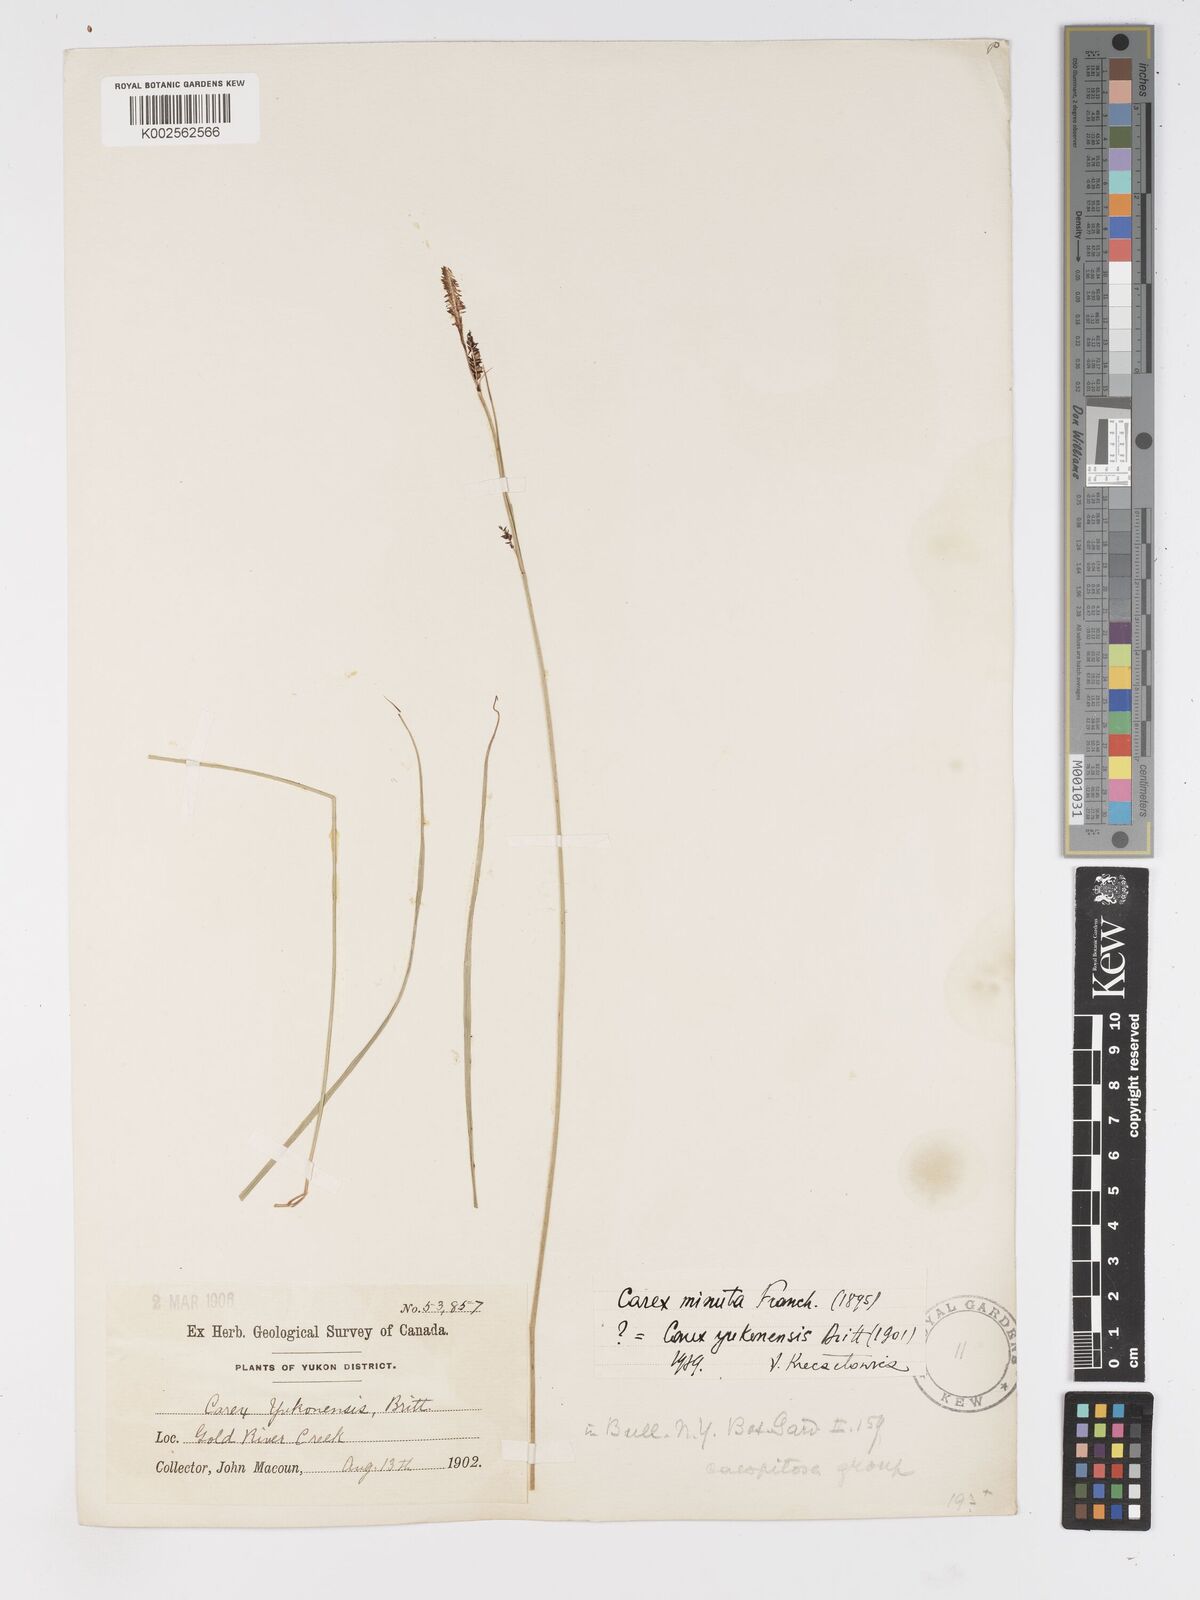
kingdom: Plantae
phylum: Tracheophyta
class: Liliopsida
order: Poales
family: Cyperaceae
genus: Carex
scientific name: Carex bigelowii
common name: Stiff sedge
